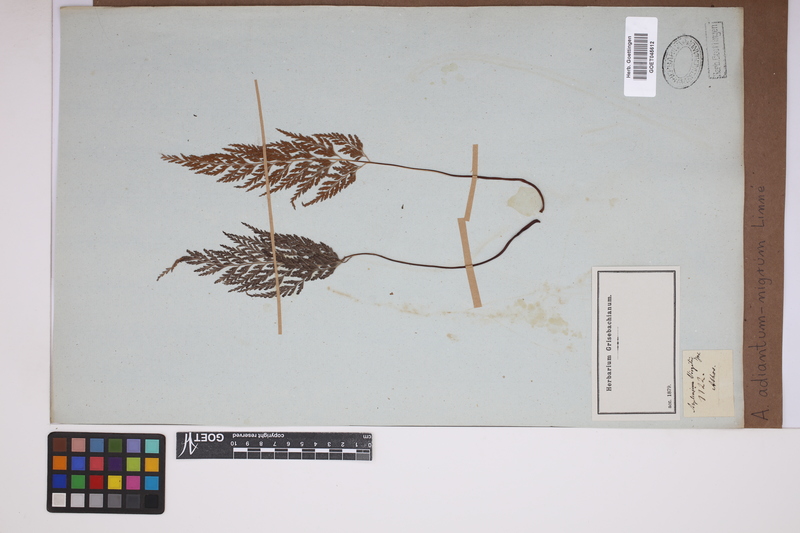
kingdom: Plantae
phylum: Tracheophyta
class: Polypodiopsida
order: Polypodiales
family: Aspleniaceae
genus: Asplenium
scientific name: Asplenium adiantum-nigrum
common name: Black spleenwort
